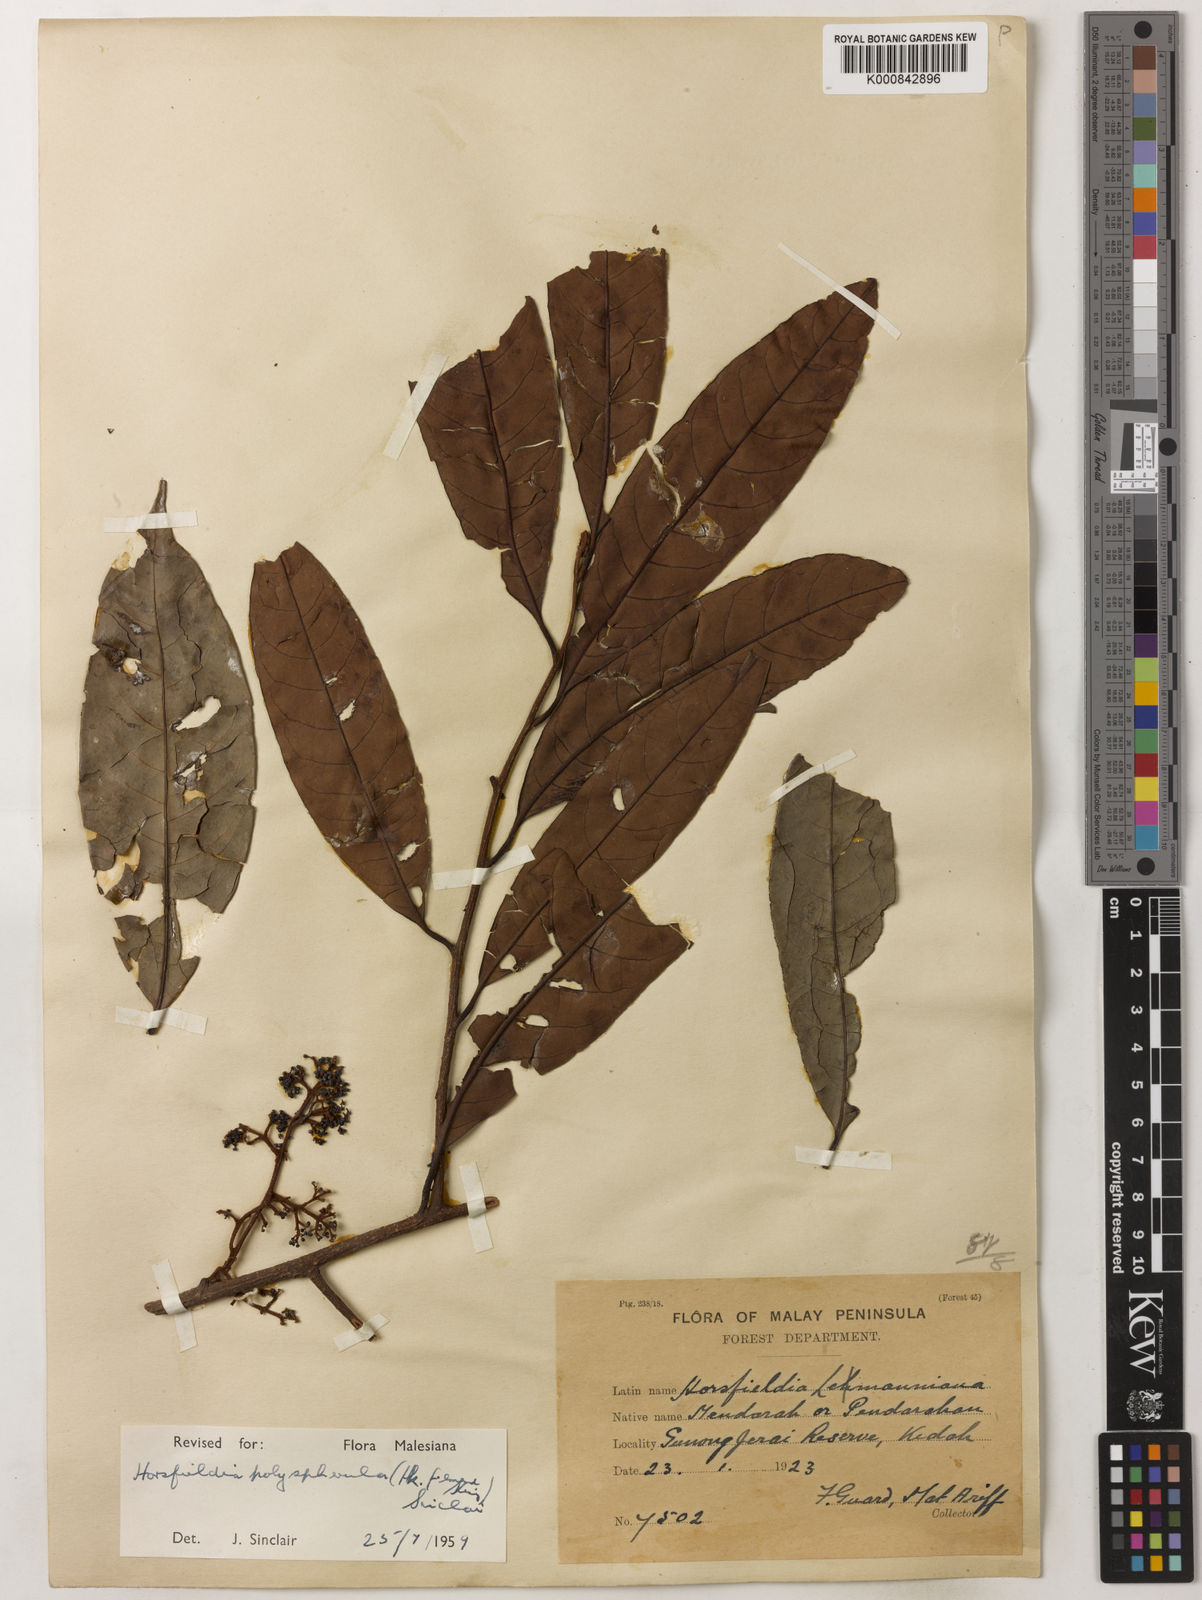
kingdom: Plantae
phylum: Tracheophyta
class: Magnoliopsida
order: Magnoliales
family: Myristicaceae
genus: Horsfieldia
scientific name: Horsfieldia
